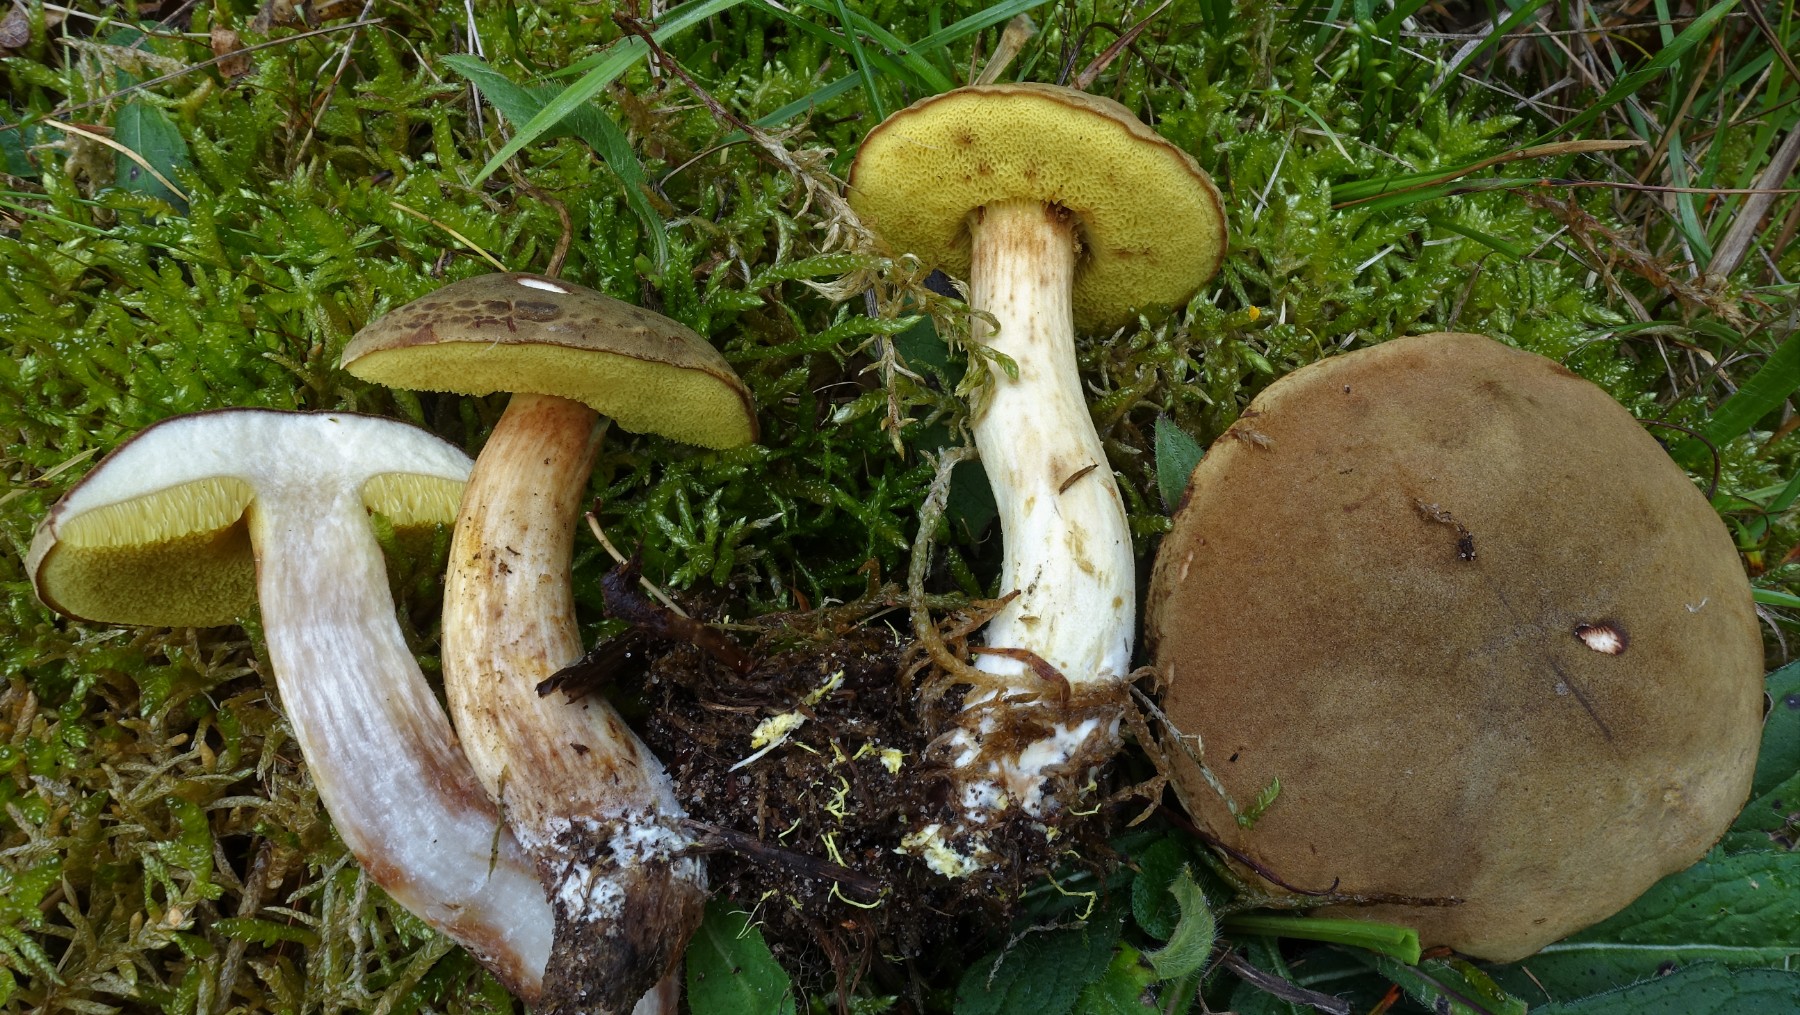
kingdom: Fungi
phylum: Basidiomycota
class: Agaricomycetes
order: Boletales
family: Boletaceae
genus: Xerocomus
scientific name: Xerocomus ferrugineus
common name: vaskeskinds-rørhat
